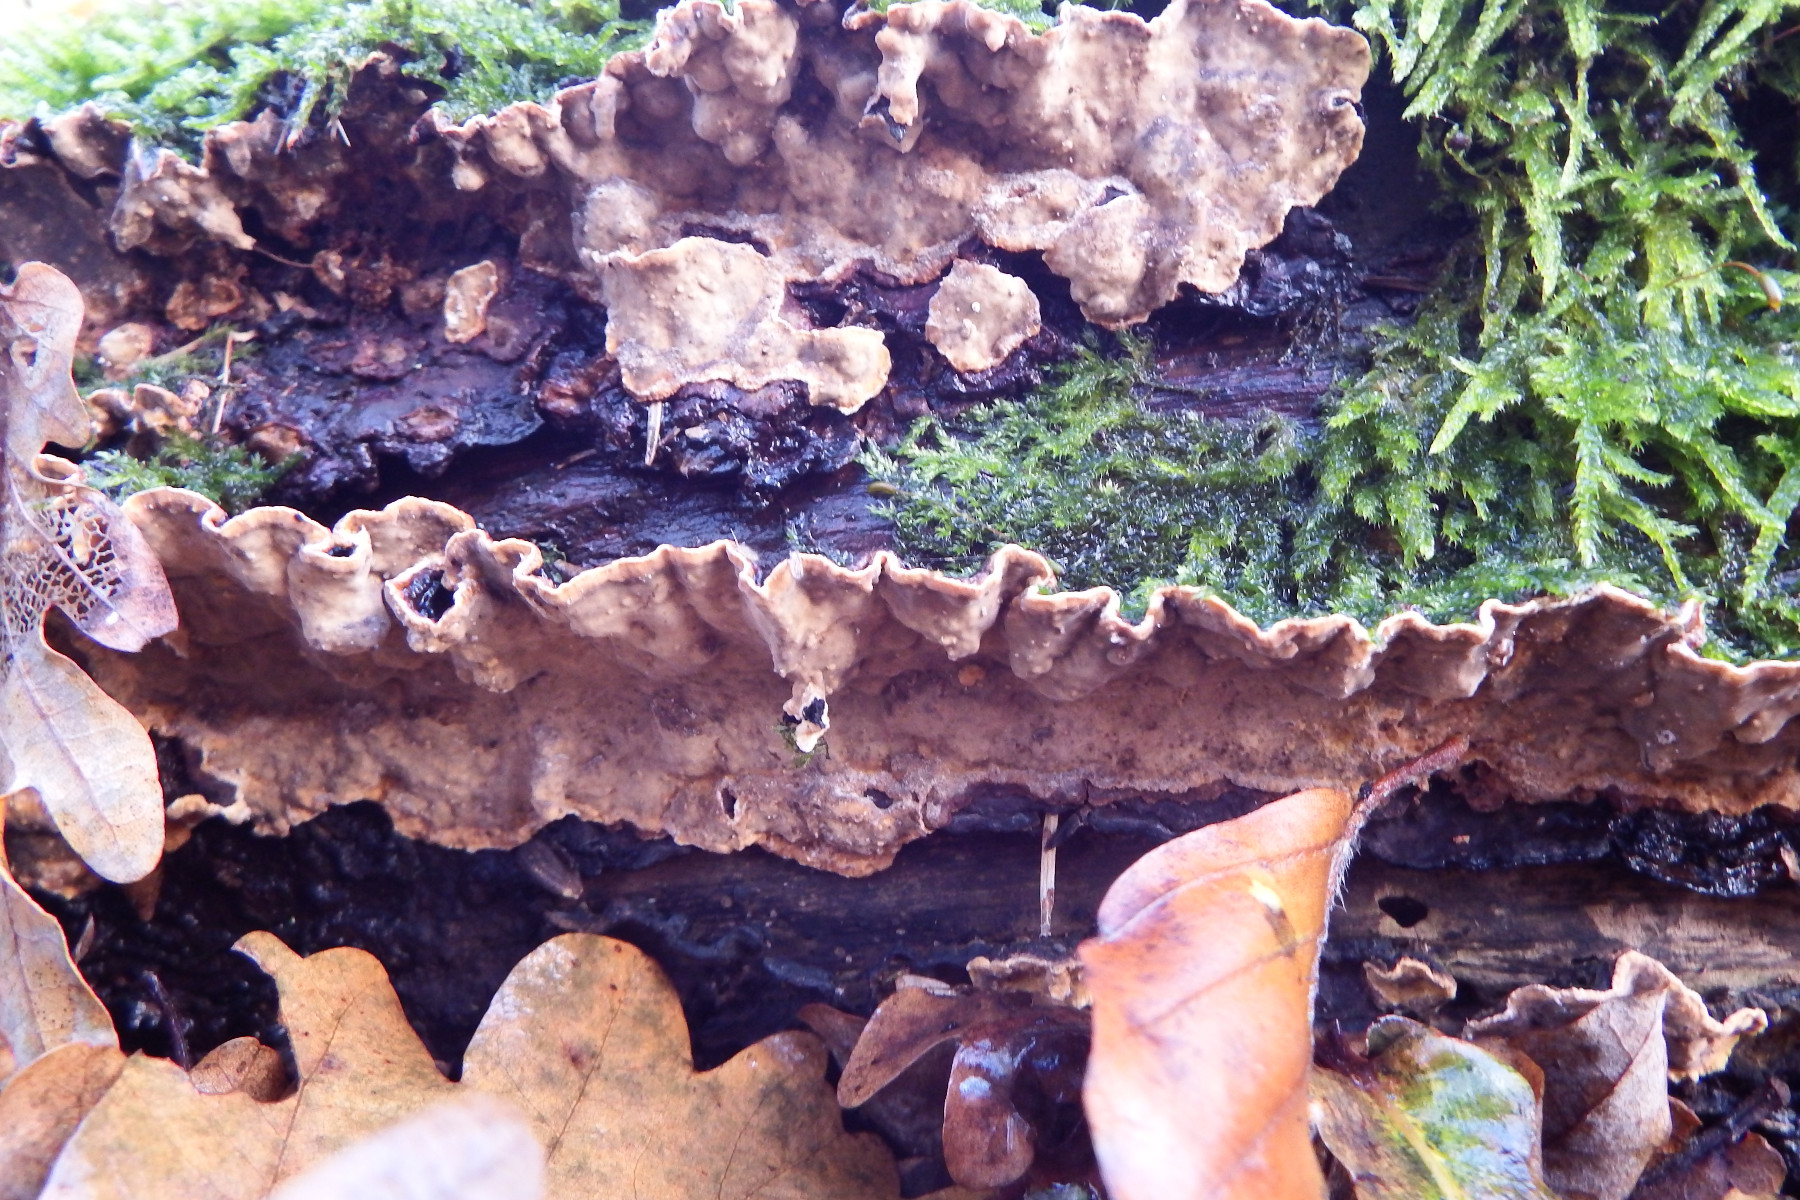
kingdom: Fungi
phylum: Basidiomycota
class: Agaricomycetes
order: Russulales
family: Stereaceae
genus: Stereum
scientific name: Stereum
